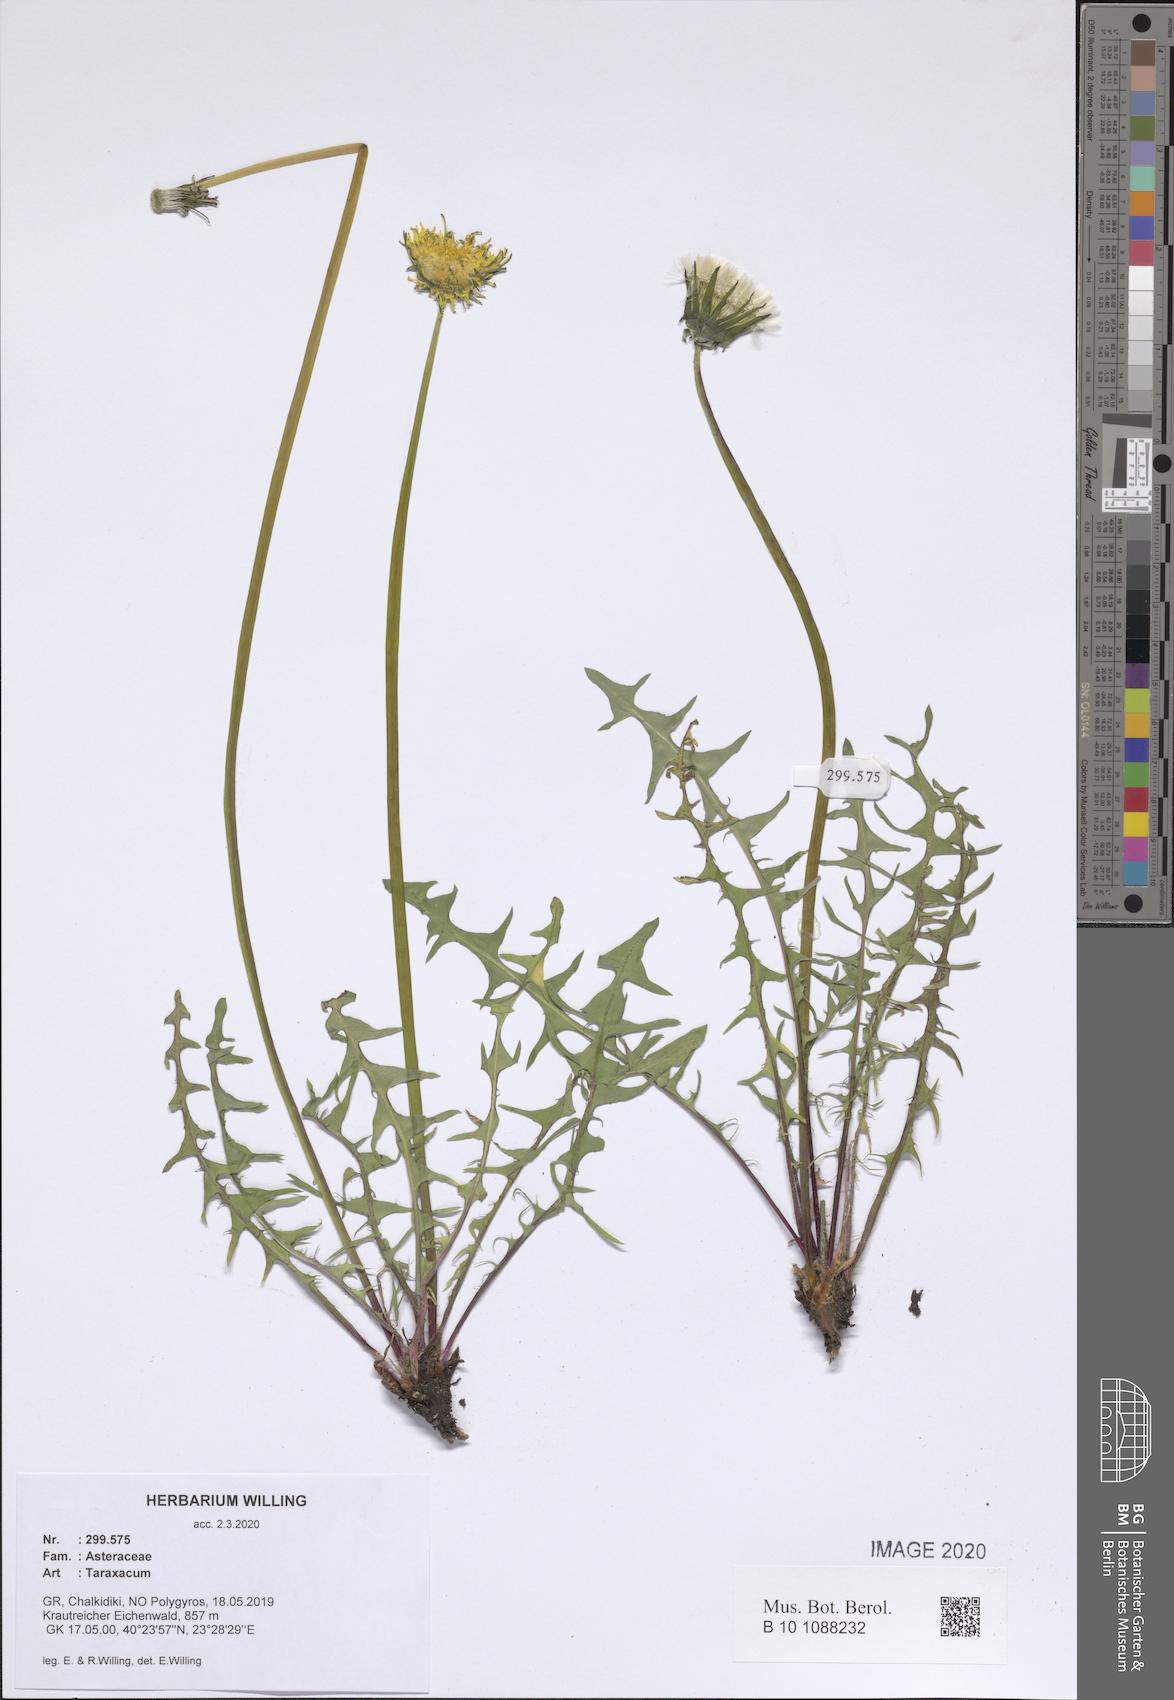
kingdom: Plantae
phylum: Tracheophyta
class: Magnoliopsida
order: Asterales
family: Asteraceae
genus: Taraxacum
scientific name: Taraxacum
